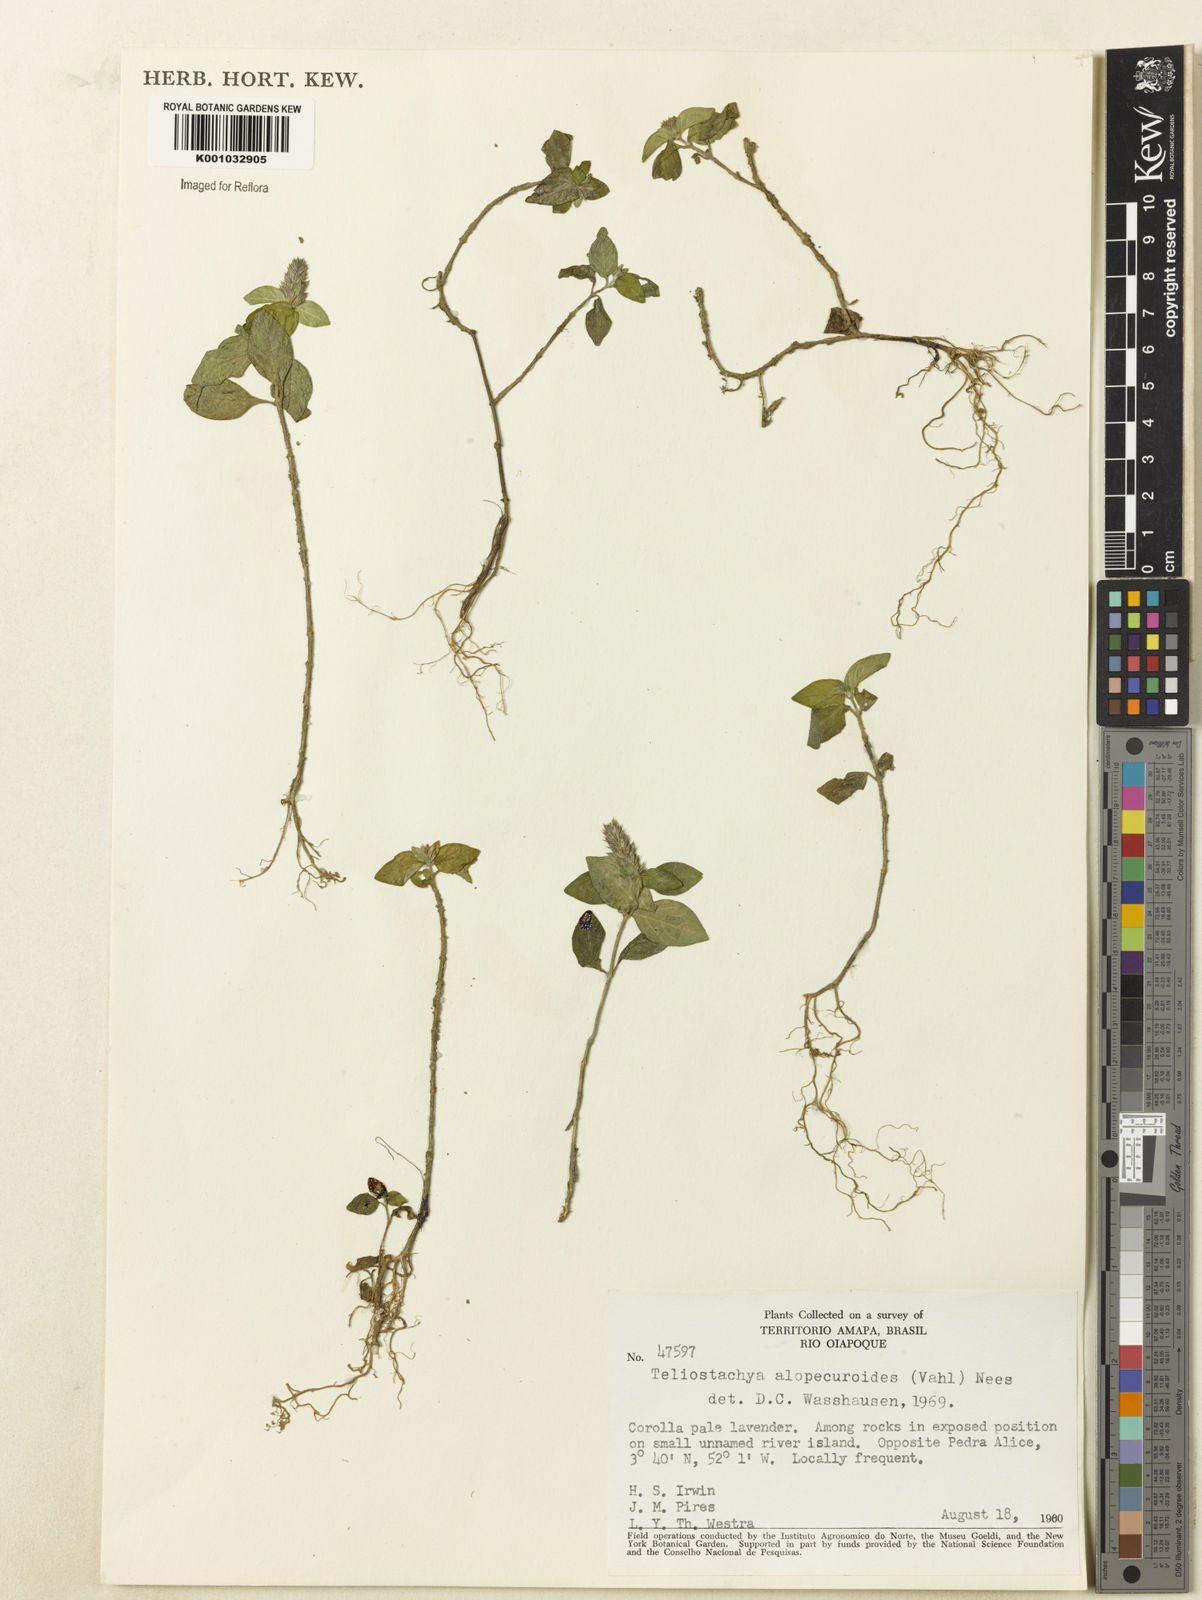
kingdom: Plantae
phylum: Tracheophyta
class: Magnoliopsida
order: Lamiales
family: Acanthaceae
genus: Lepidagathis
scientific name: Lepidagathis alopecuroidea
